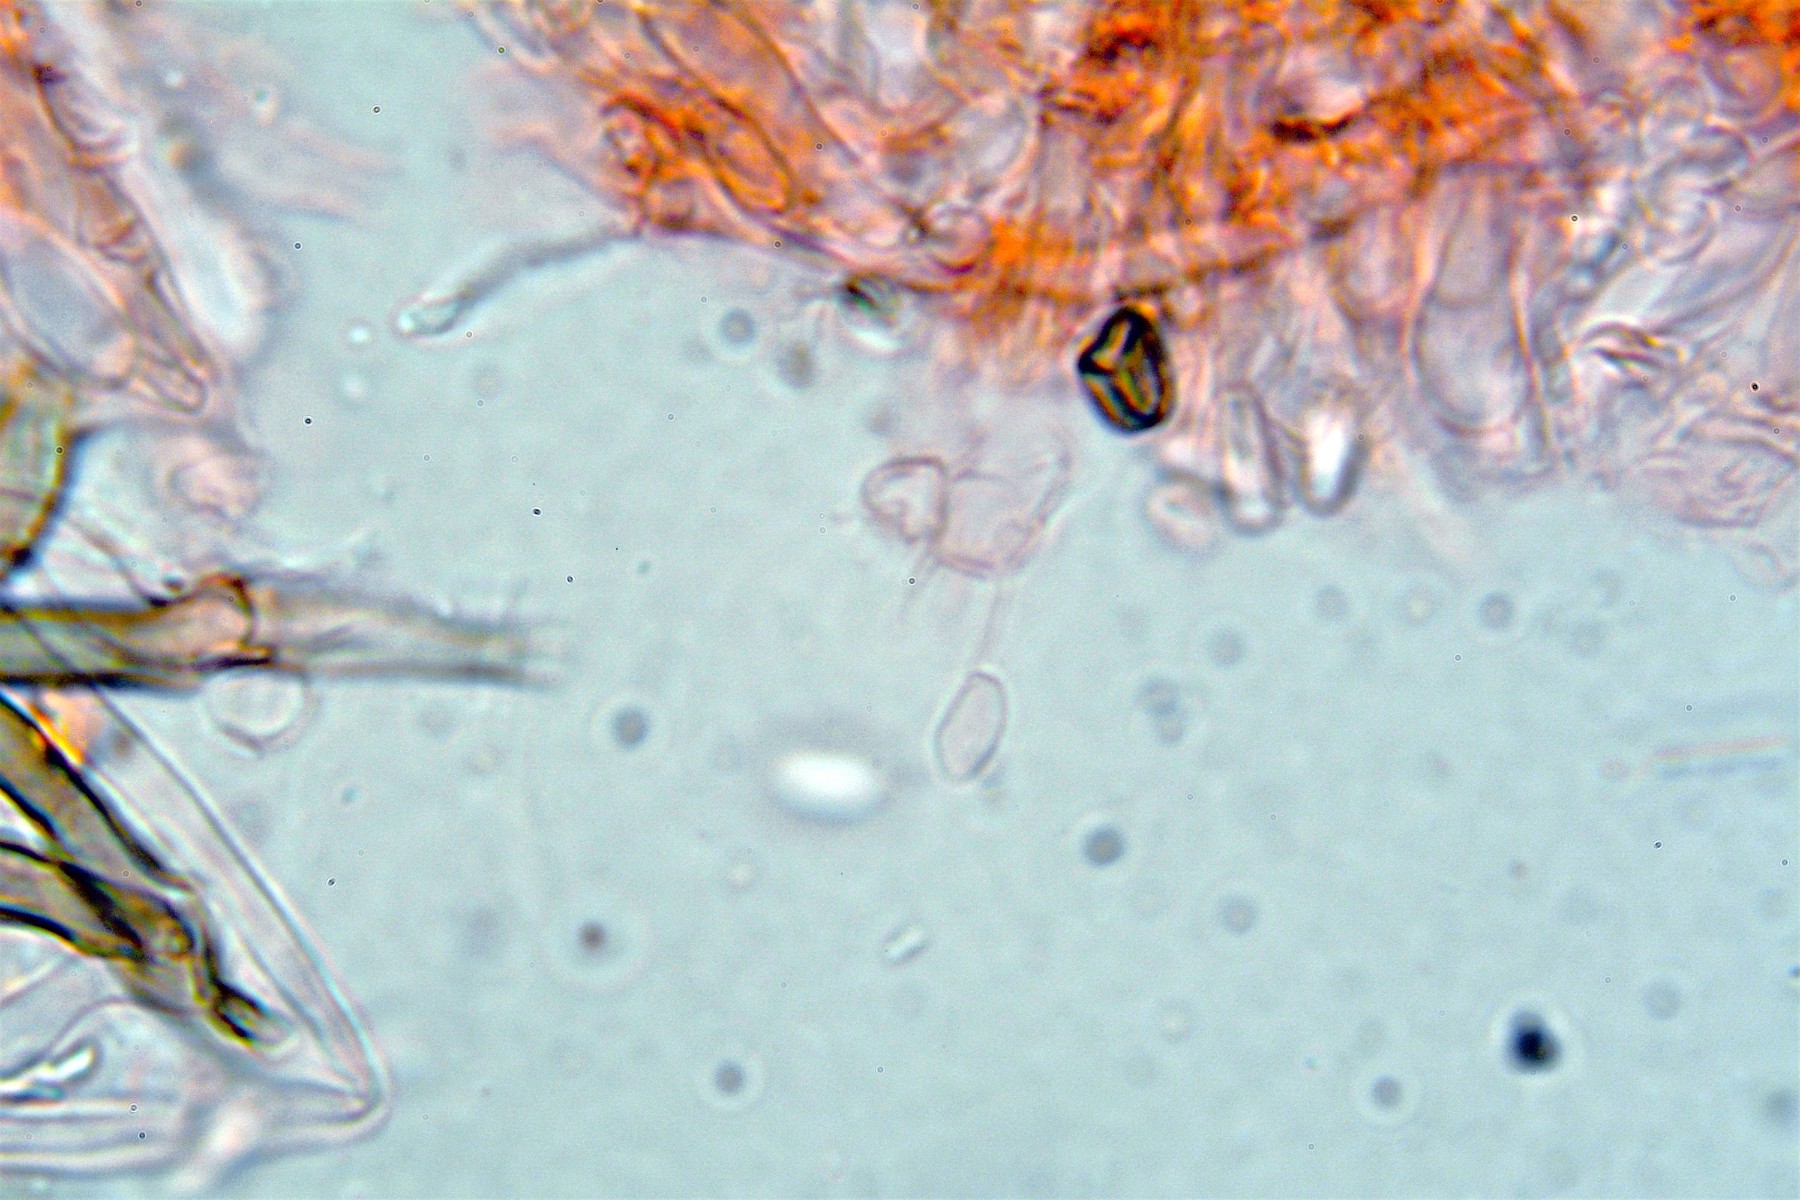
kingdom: Fungi
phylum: Basidiomycota
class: Agaricomycetes
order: Corticiales
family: Corticiaceae
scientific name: Corticiaceae
